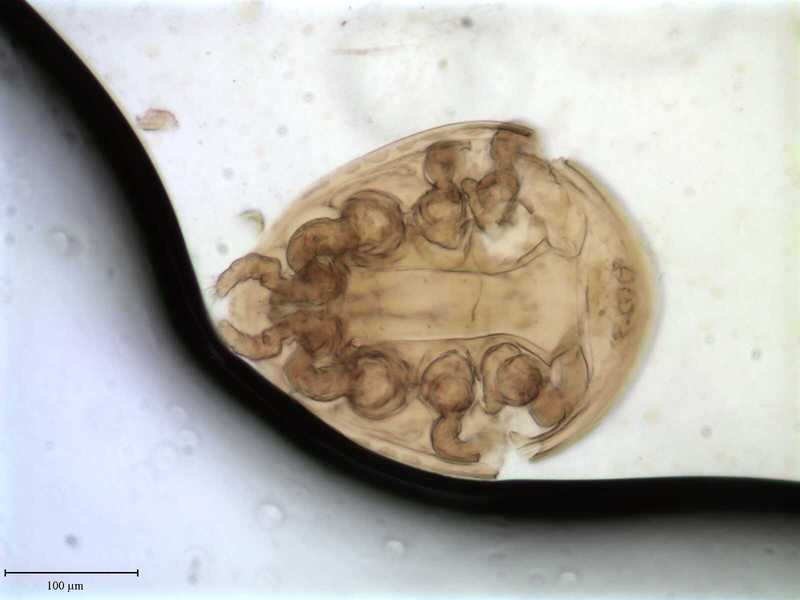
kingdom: Animalia
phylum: Arthropoda
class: Arachnida
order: Mesostigmata
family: Uropodidae
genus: Cilliba
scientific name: Cilliba
